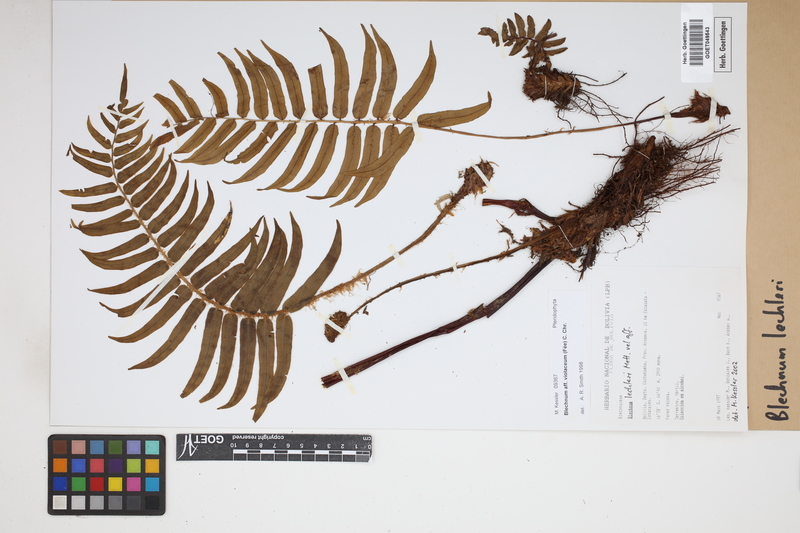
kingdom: Plantae
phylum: Tracheophyta
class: Polypodiopsida
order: Polypodiales
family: Blechnaceae
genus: Parablechnum
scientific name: Parablechnum lechleri
